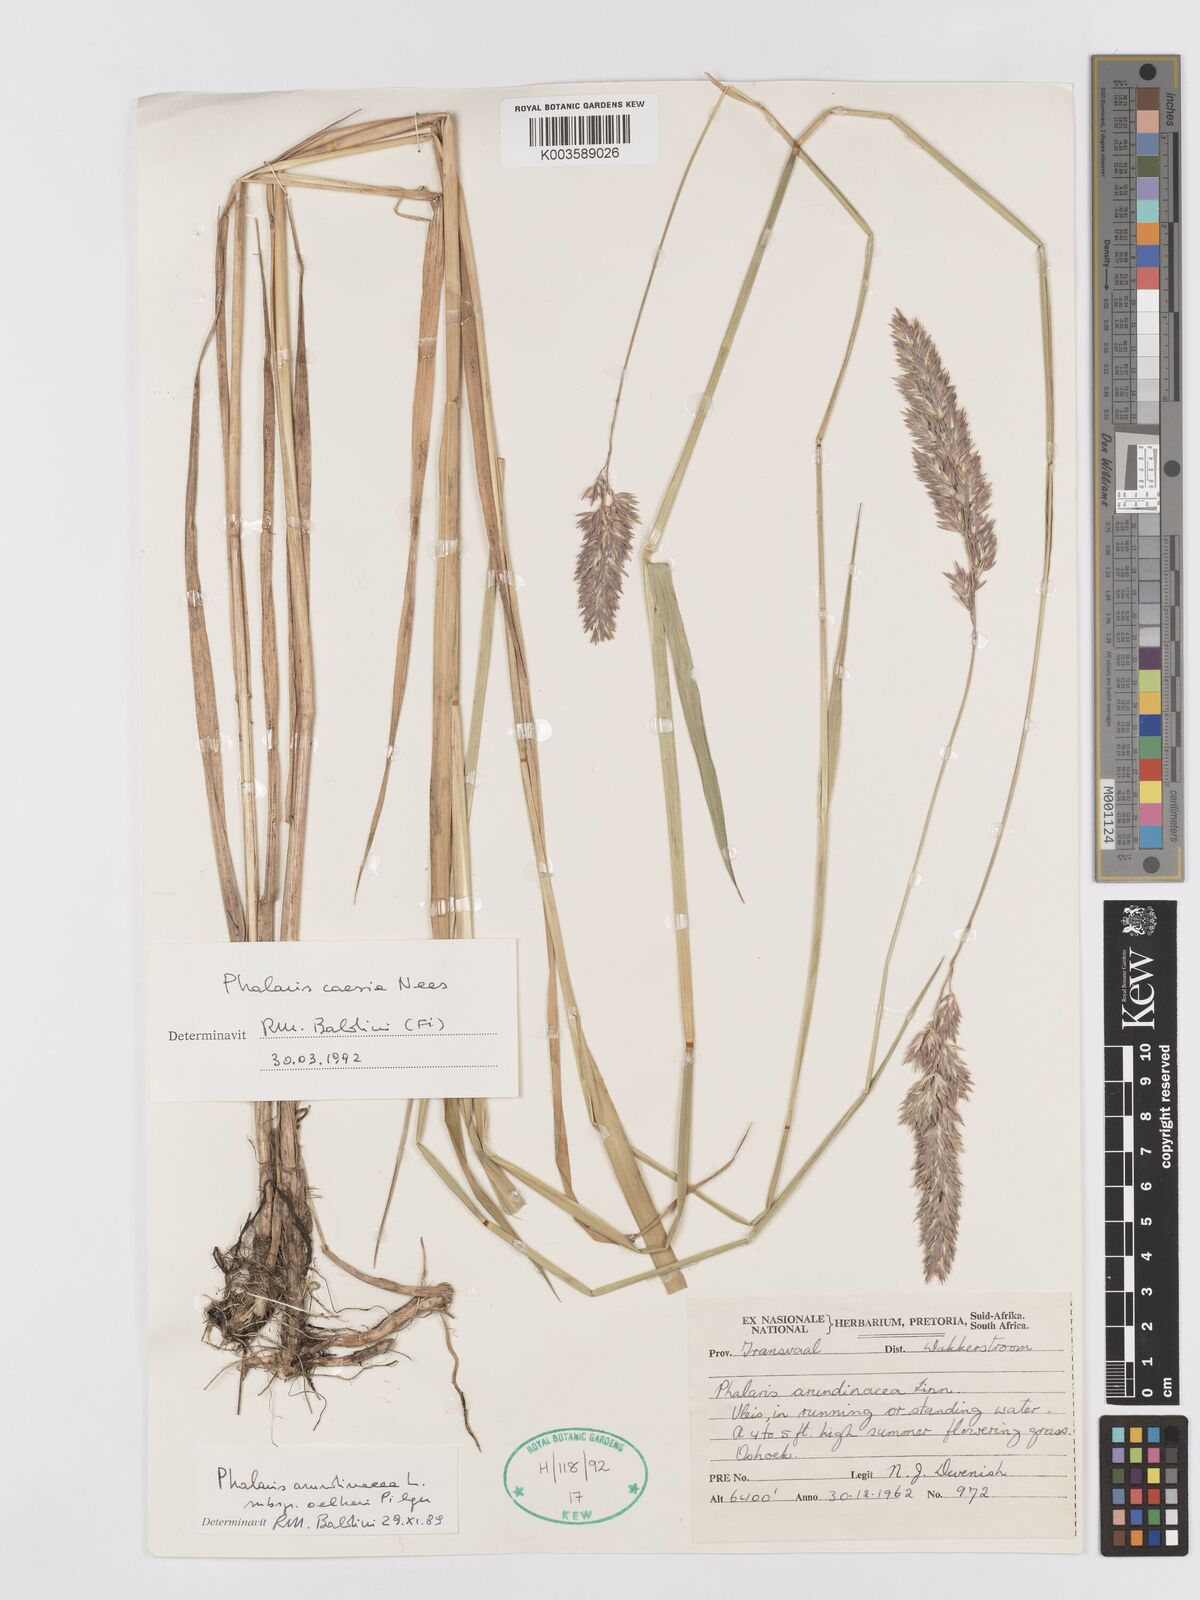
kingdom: Plantae
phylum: Tracheophyta
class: Liliopsida
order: Poales
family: Poaceae
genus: Phalaris
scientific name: Phalaris arundinacea
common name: Reed canary-grass
